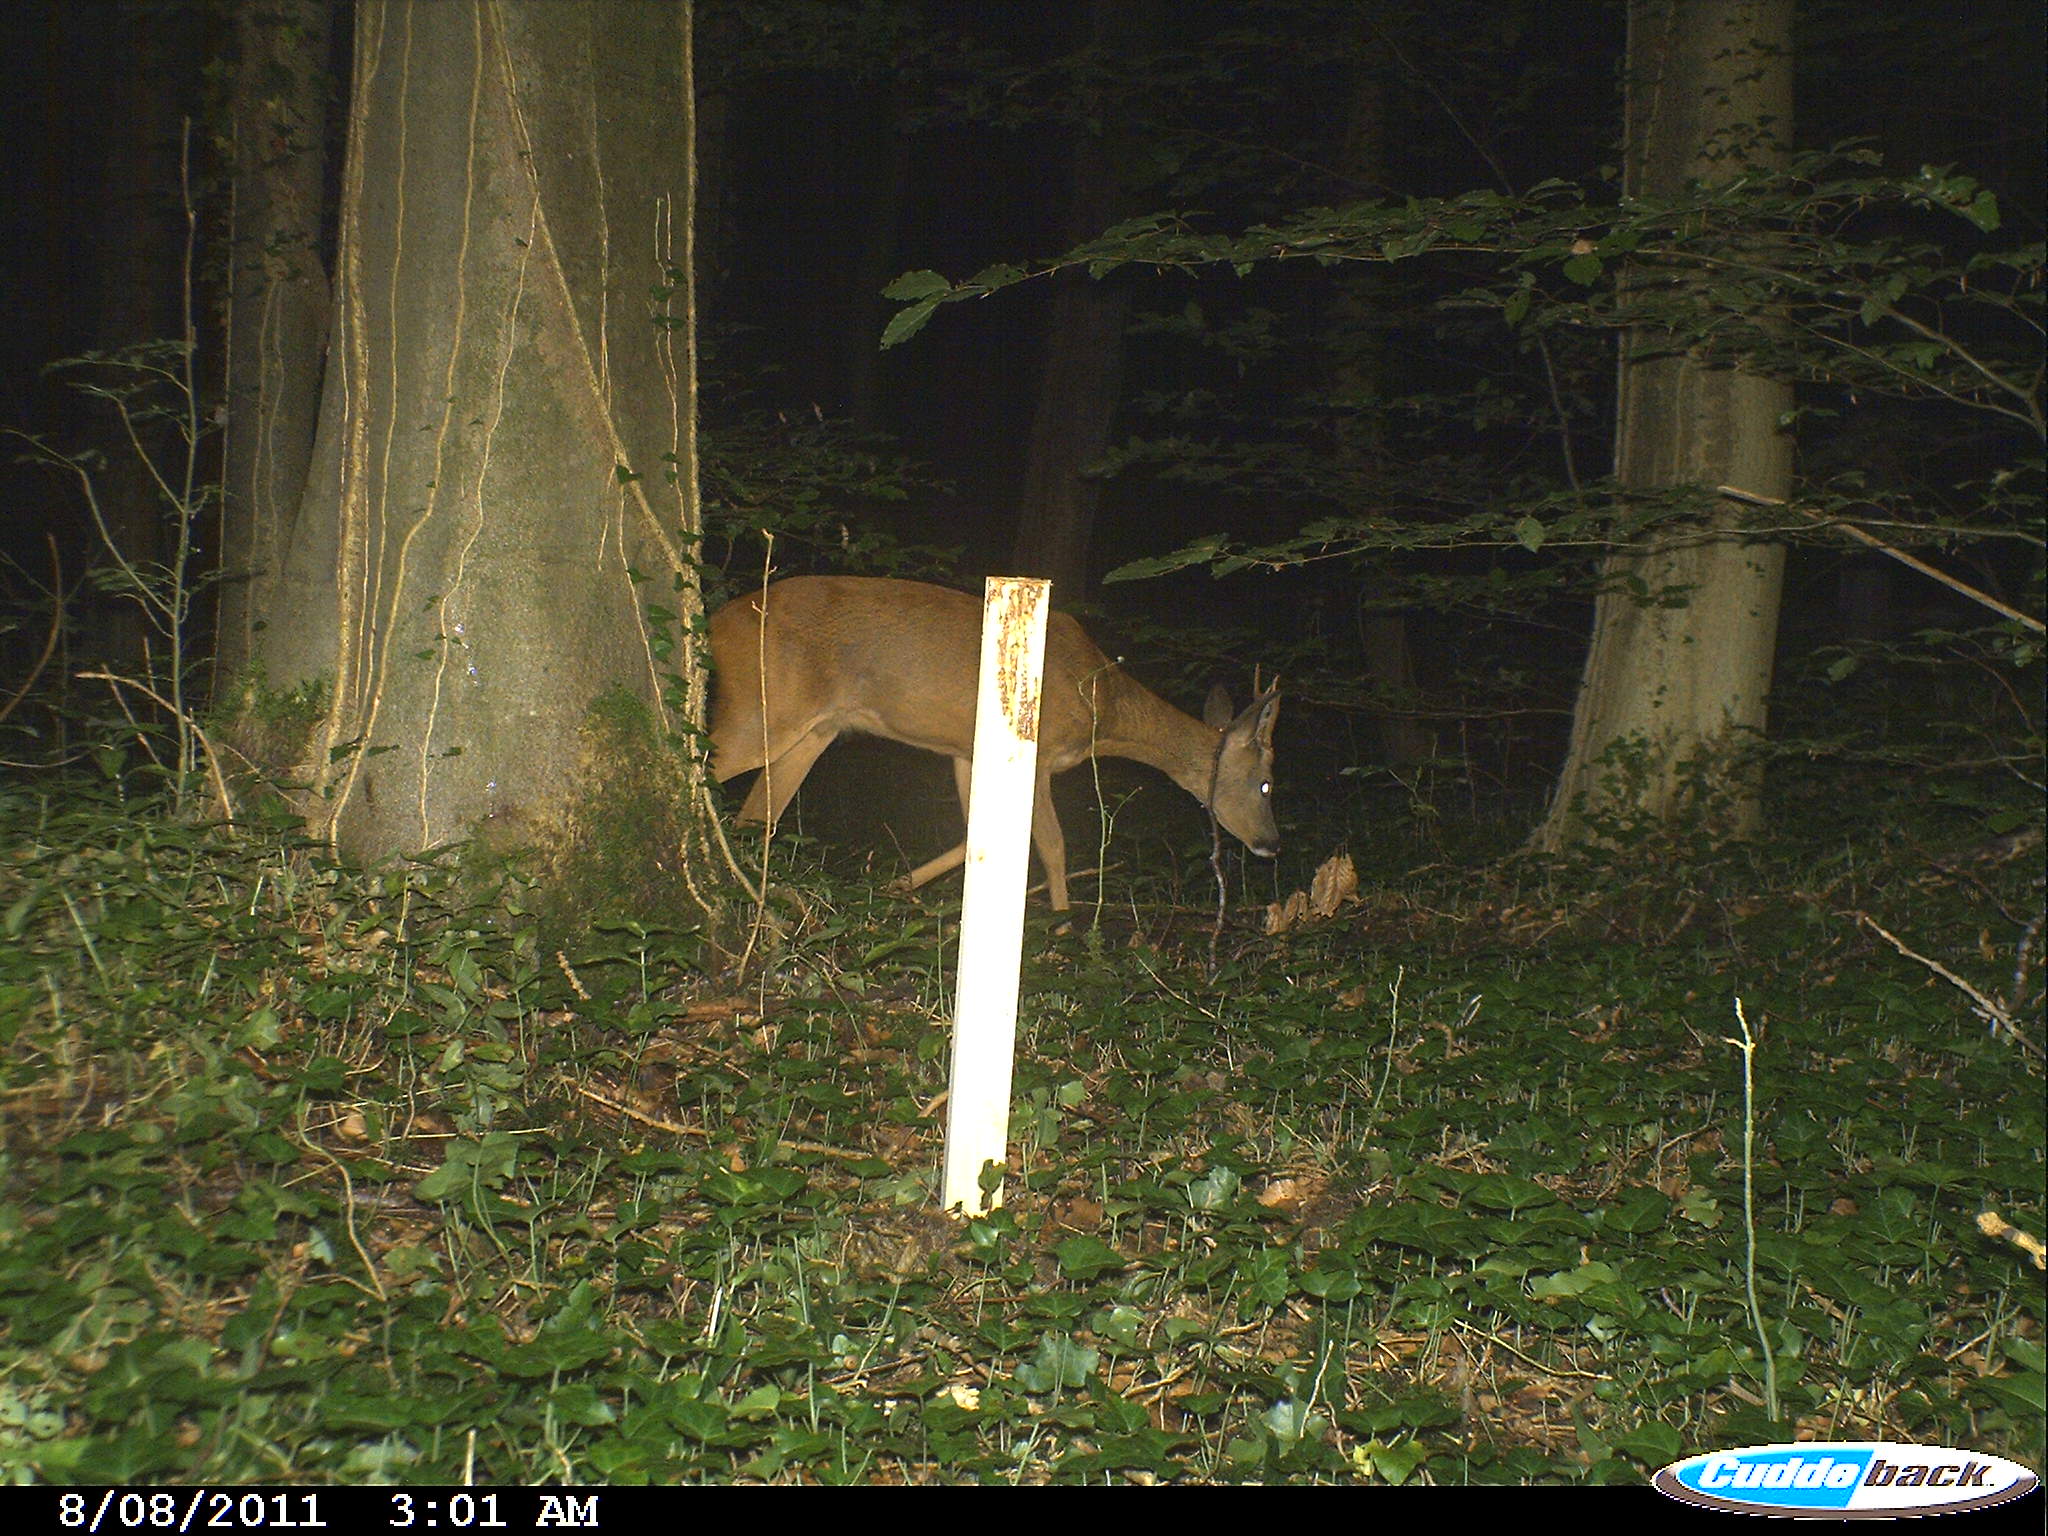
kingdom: Animalia
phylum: Chordata
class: Mammalia
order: Artiodactyla
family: Cervidae
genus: Capreolus
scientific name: Capreolus capreolus
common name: Western roe deer
